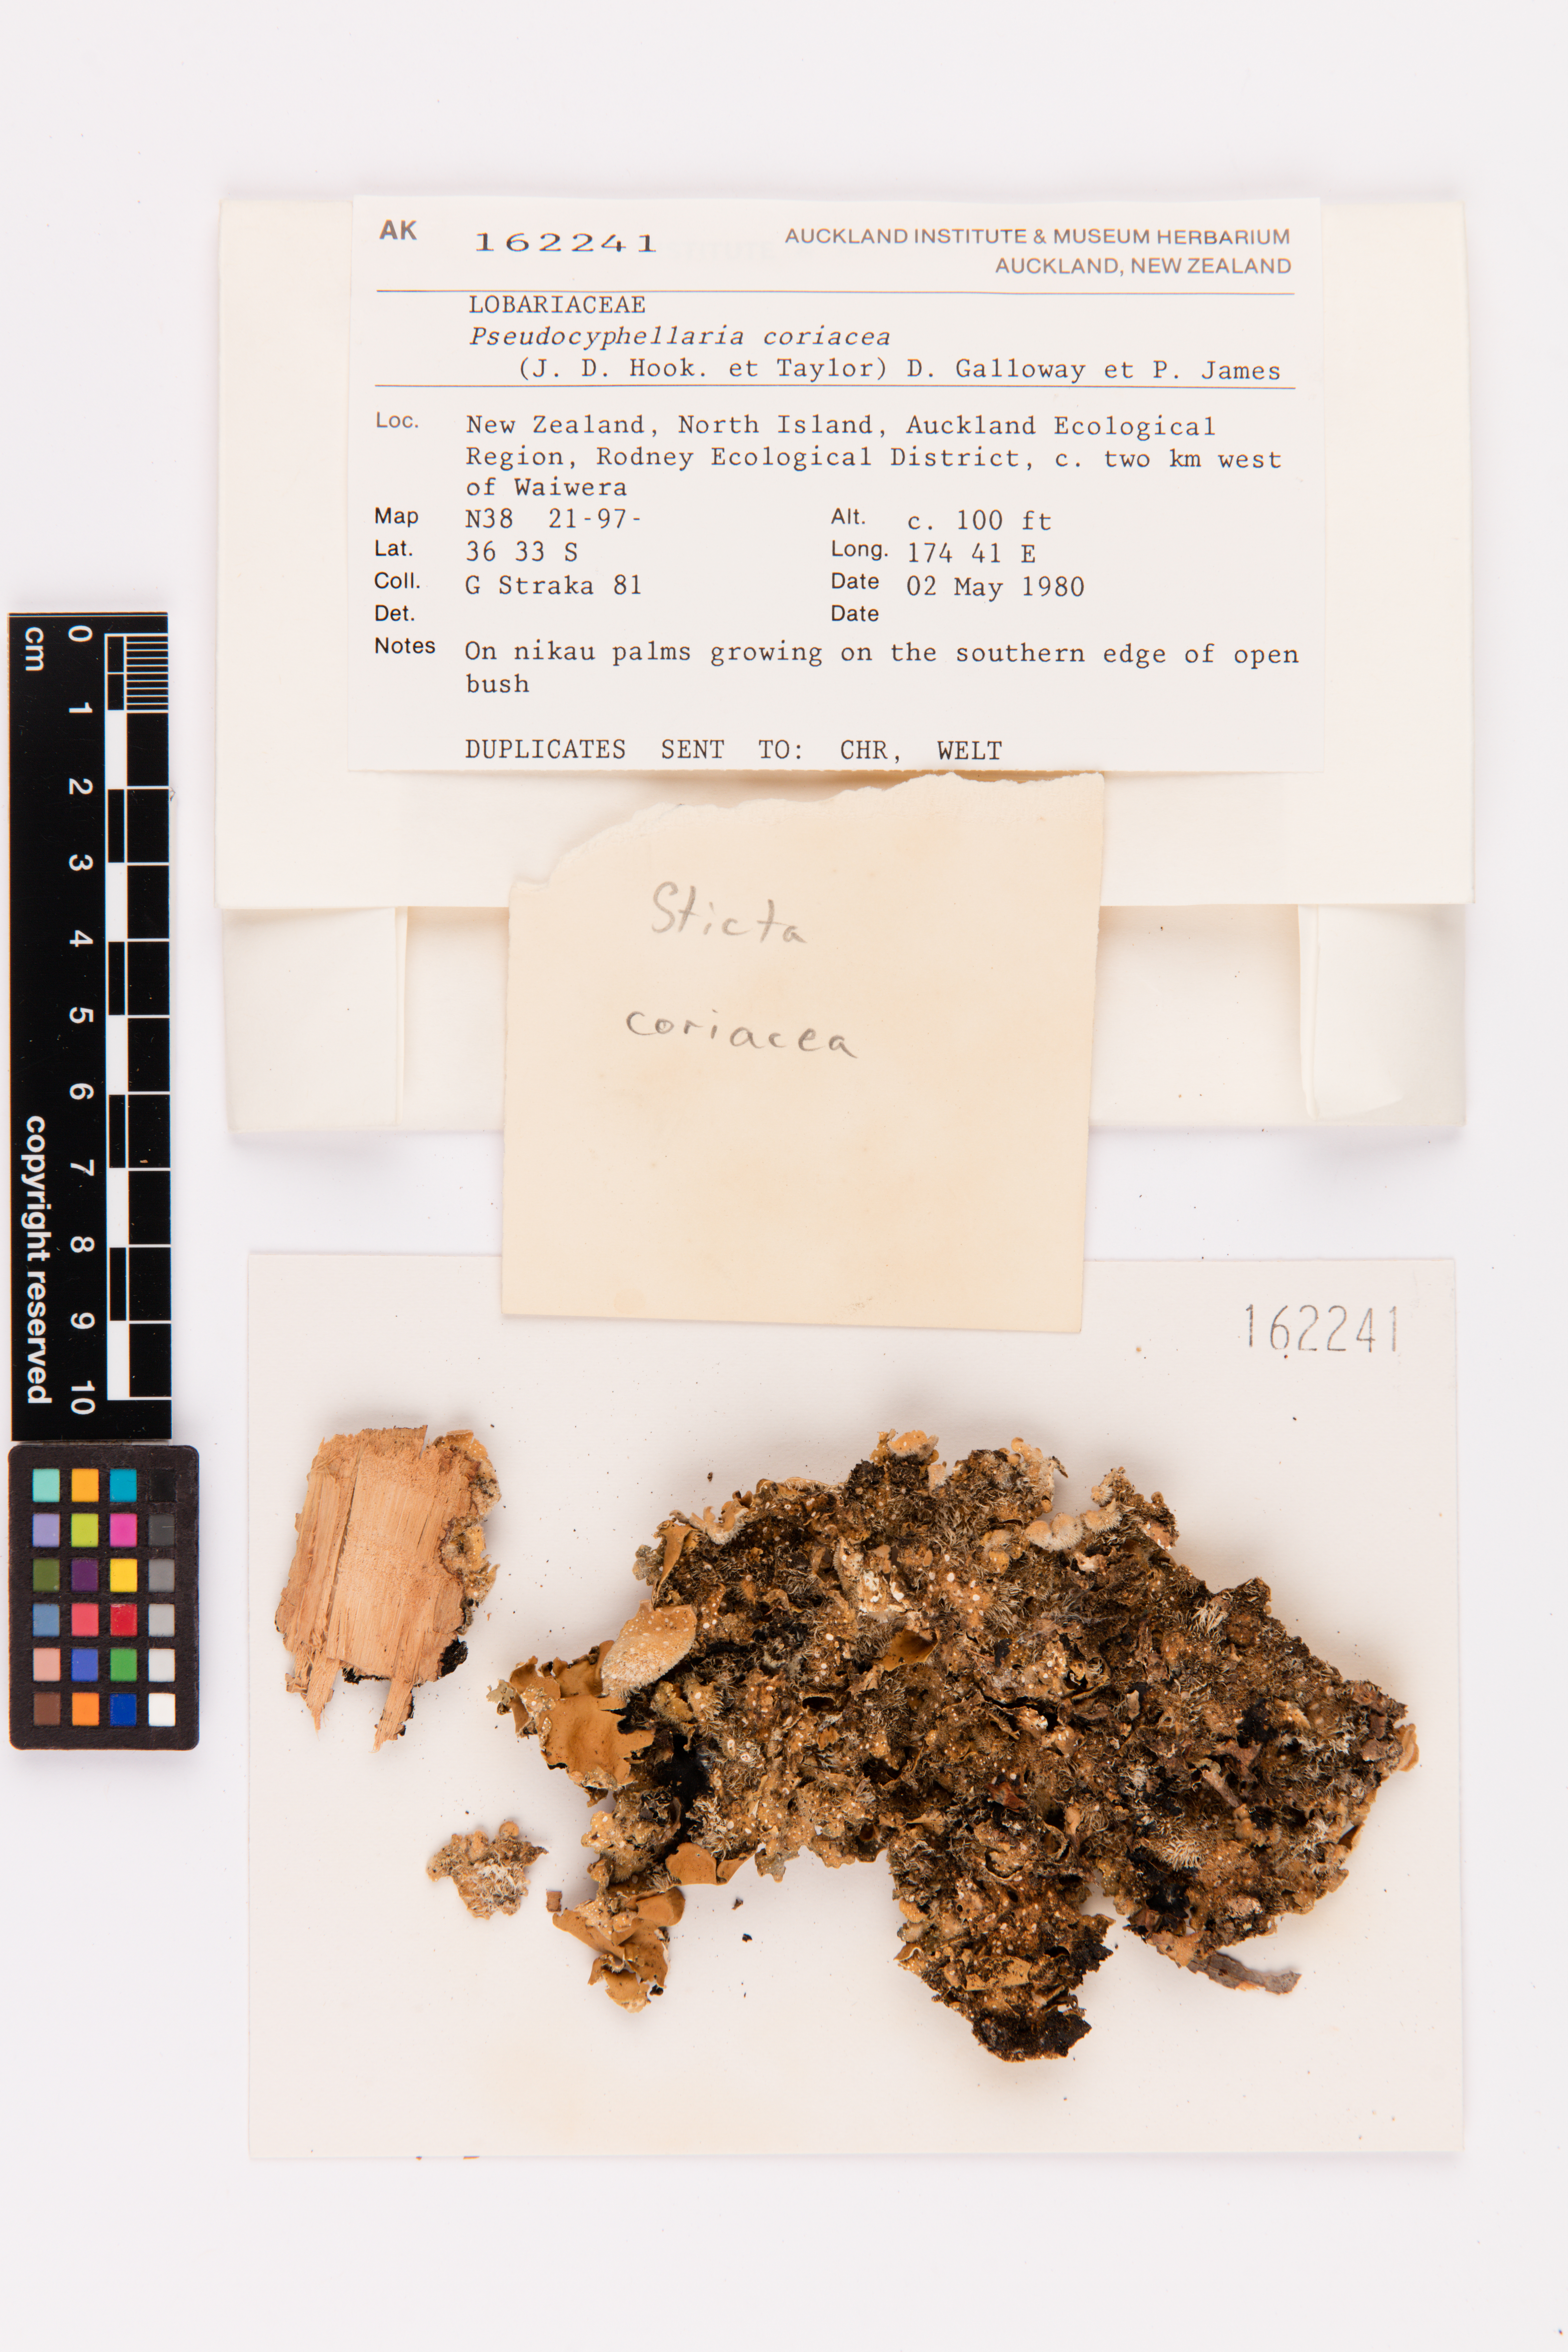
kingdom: Fungi
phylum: Ascomycota
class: Lecanoromycetes
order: Peltigerales
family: Lobariaceae
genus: Pseudocyphellaria
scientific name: Pseudocyphellaria coriacea
